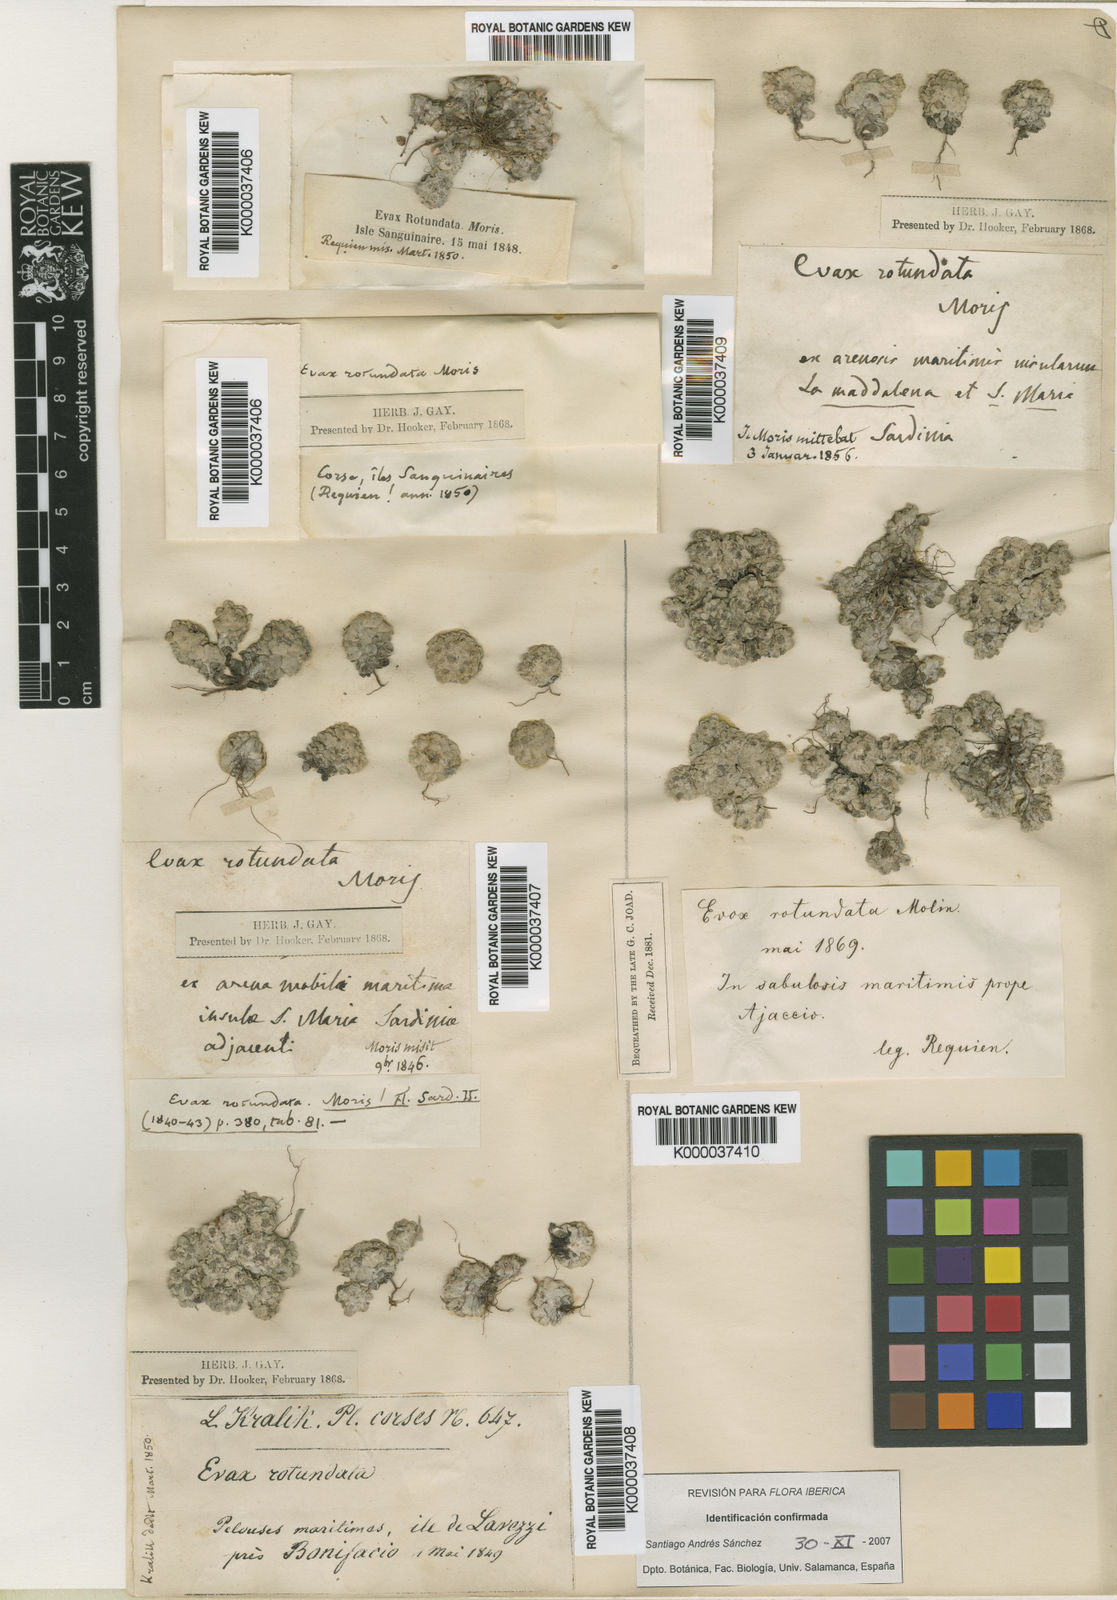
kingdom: Plantae
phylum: Tracheophyta
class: Magnoliopsida
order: Asterales
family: Asteraceae
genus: Filago
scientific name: Filago tyrrhenica
